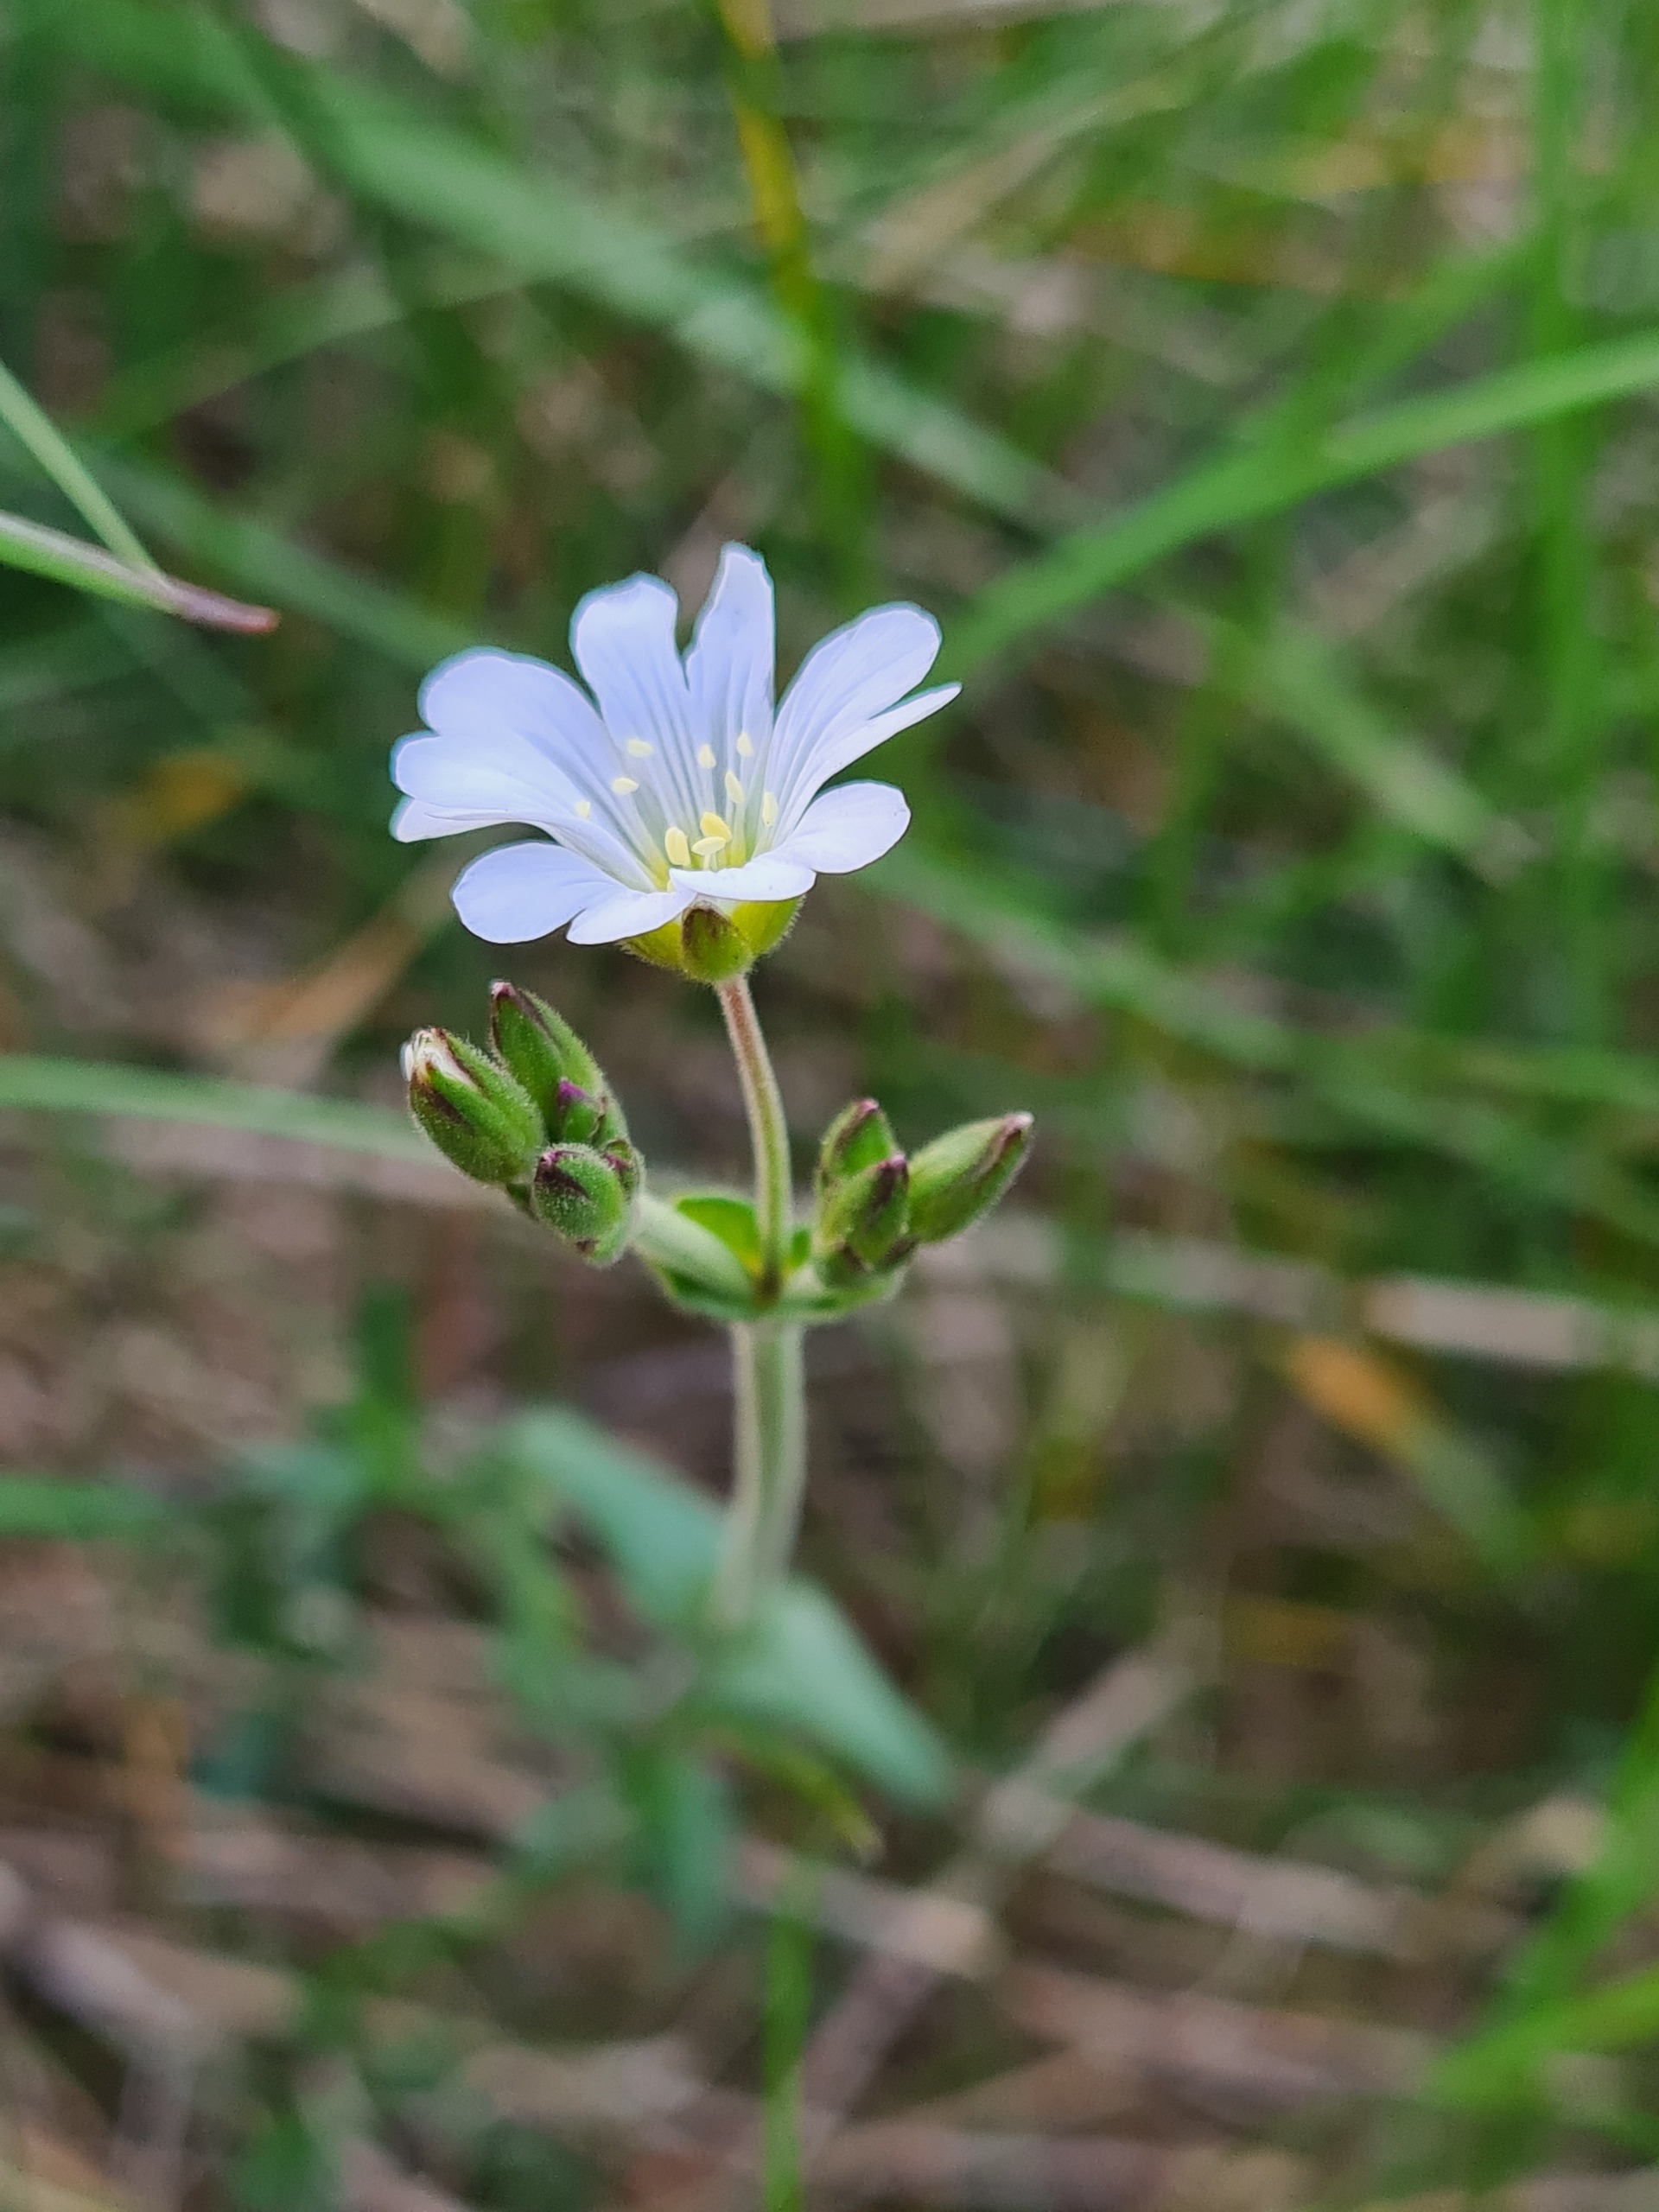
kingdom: Plantae
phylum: Tracheophyta
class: Magnoliopsida
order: Caryophyllales
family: Caryophyllaceae
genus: Cerastium
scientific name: Cerastium arvense
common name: Storblomstret hønsetarm
